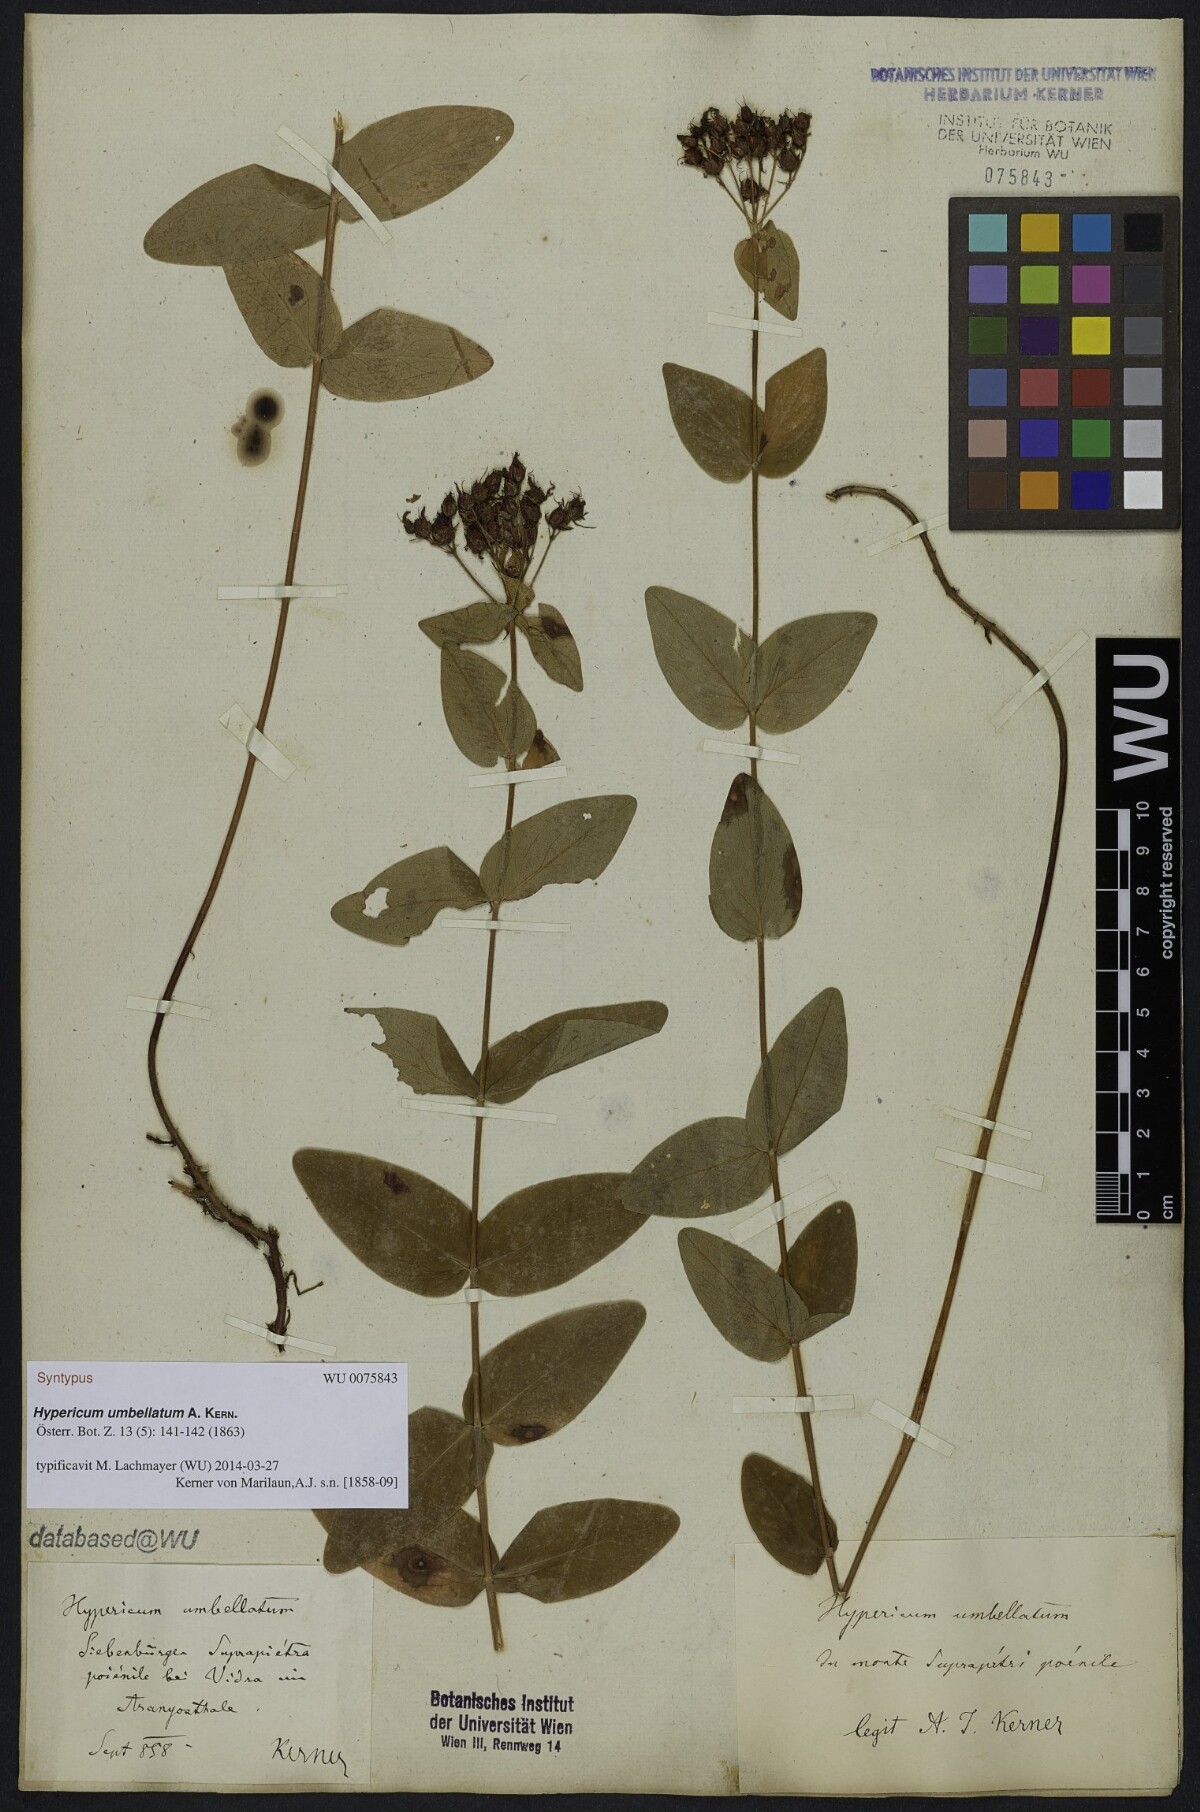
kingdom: Plantae
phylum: Tracheophyta
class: Magnoliopsida
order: Malpighiales
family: Hypericaceae
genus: Hypericum
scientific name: Hypericum umbellatum
